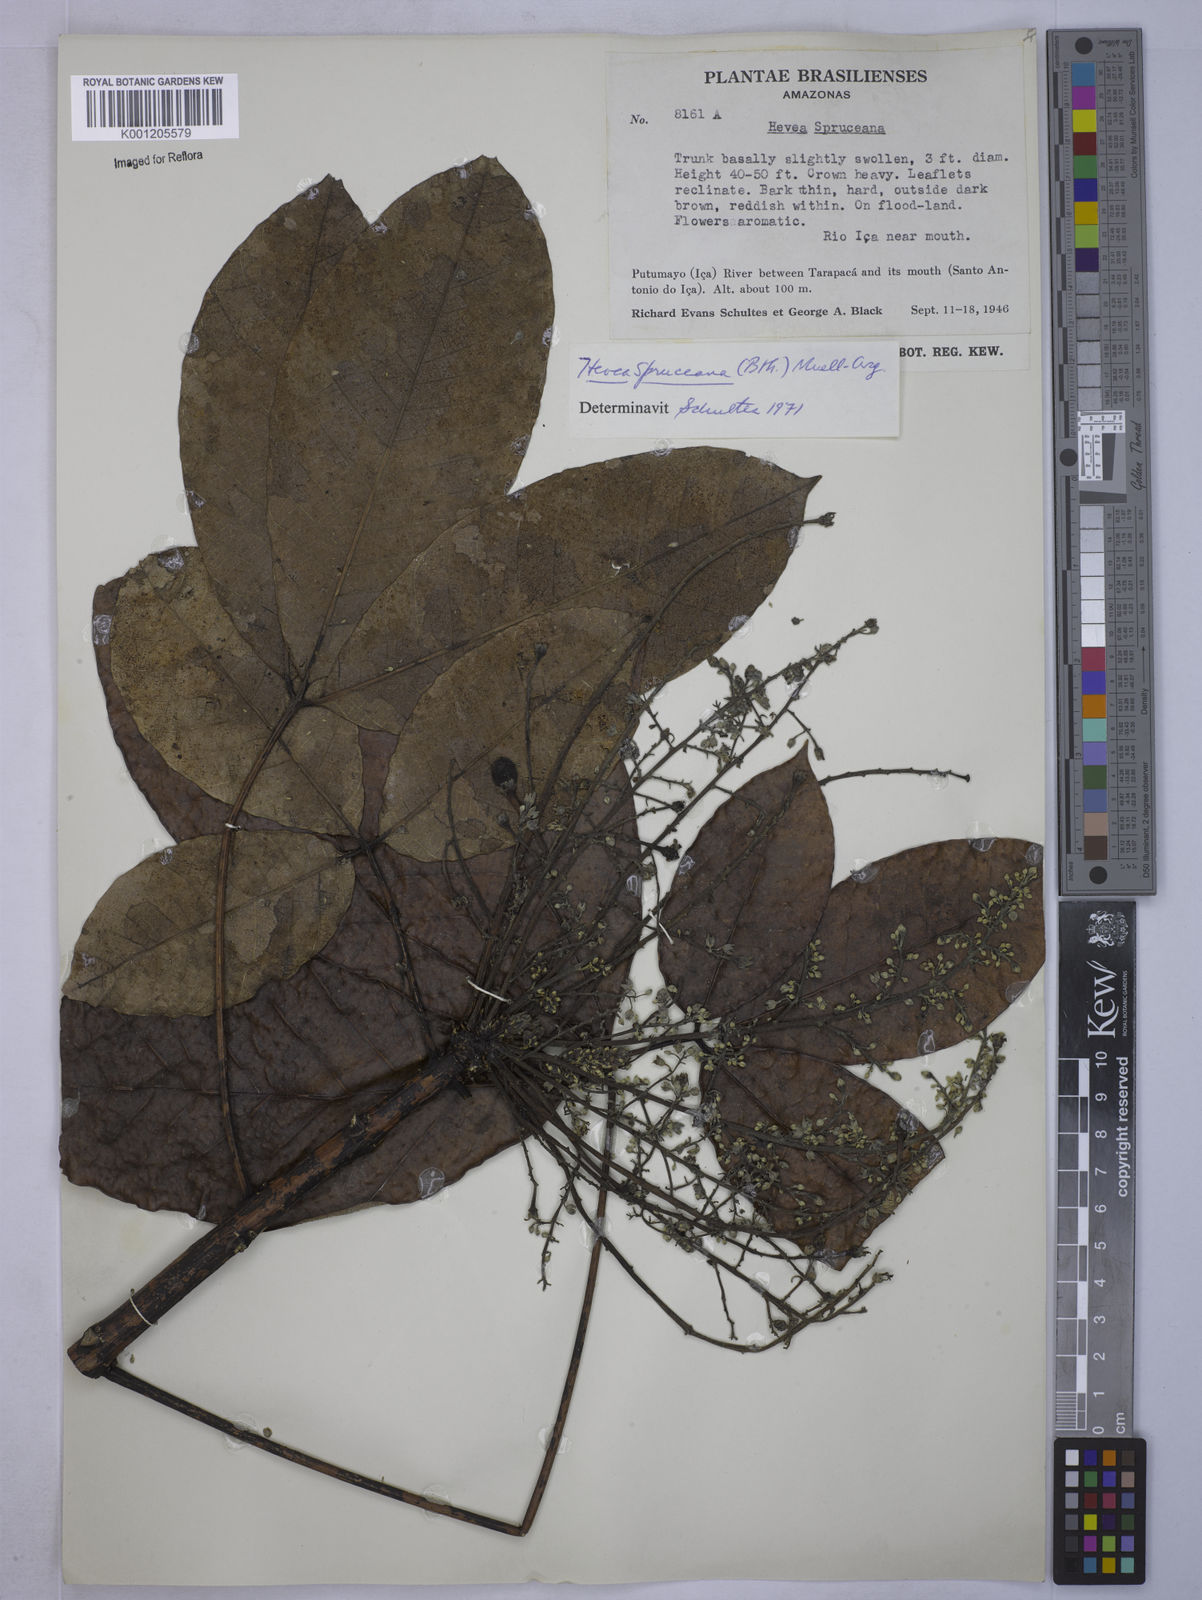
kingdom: Plantae
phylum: Tracheophyta
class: Magnoliopsida
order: Malpighiales
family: Euphorbiaceae
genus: Hevea
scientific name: Hevea
